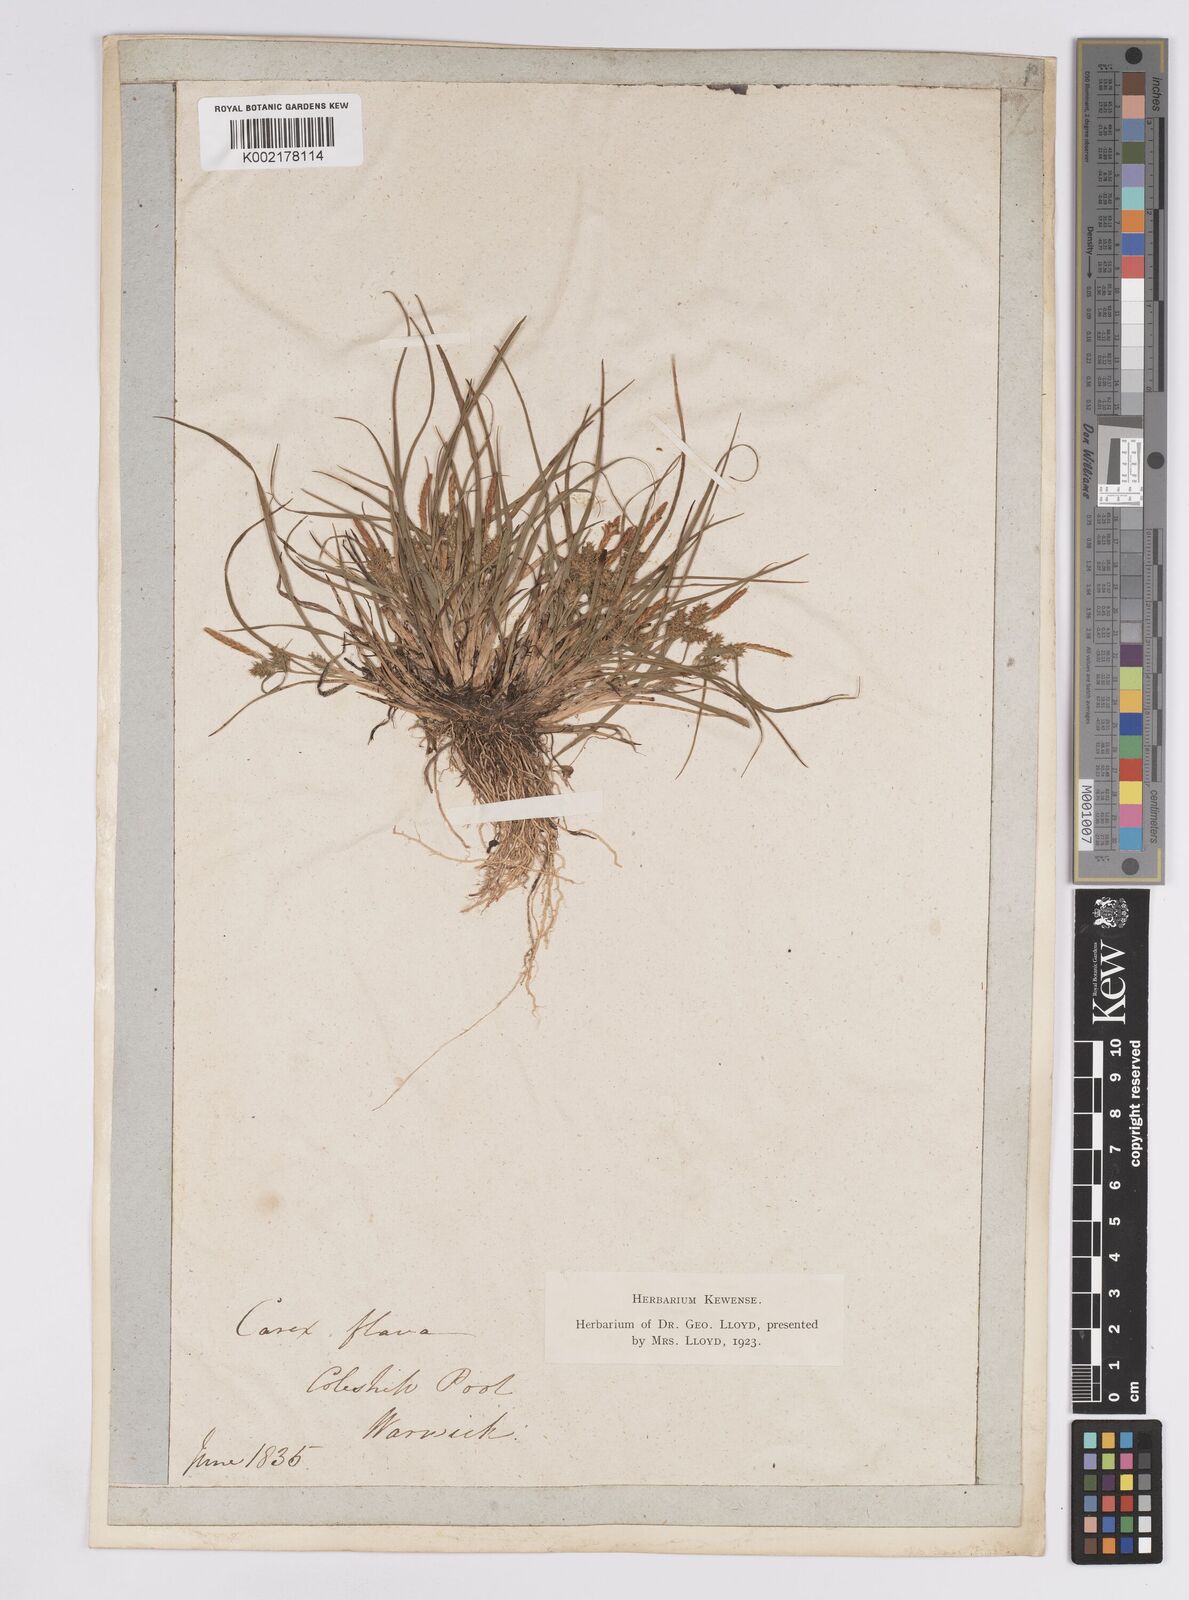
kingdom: Plantae
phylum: Tracheophyta
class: Liliopsida
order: Poales
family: Cyperaceae
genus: Carex
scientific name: Carex demissa
